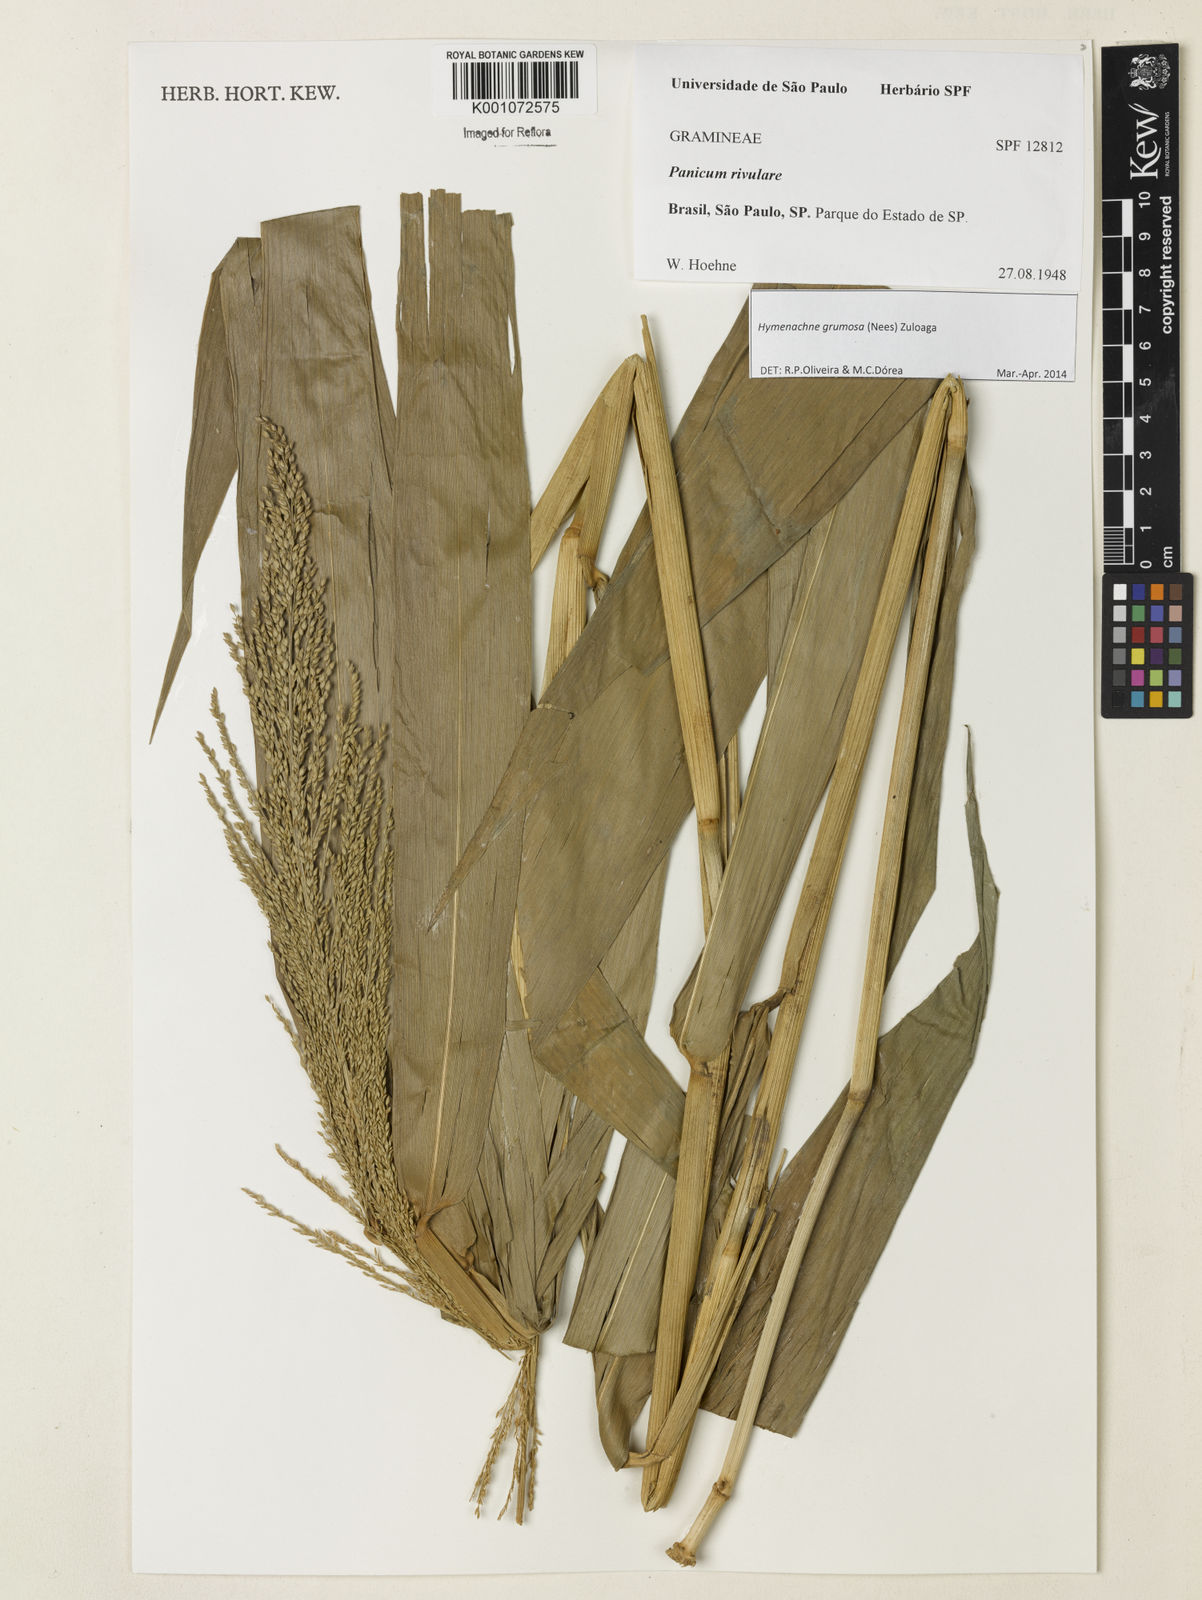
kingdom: Plantae
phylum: Tracheophyta
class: Liliopsida
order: Poales
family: Poaceae
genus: Hymenachne
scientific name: Hymenachne grumosa
